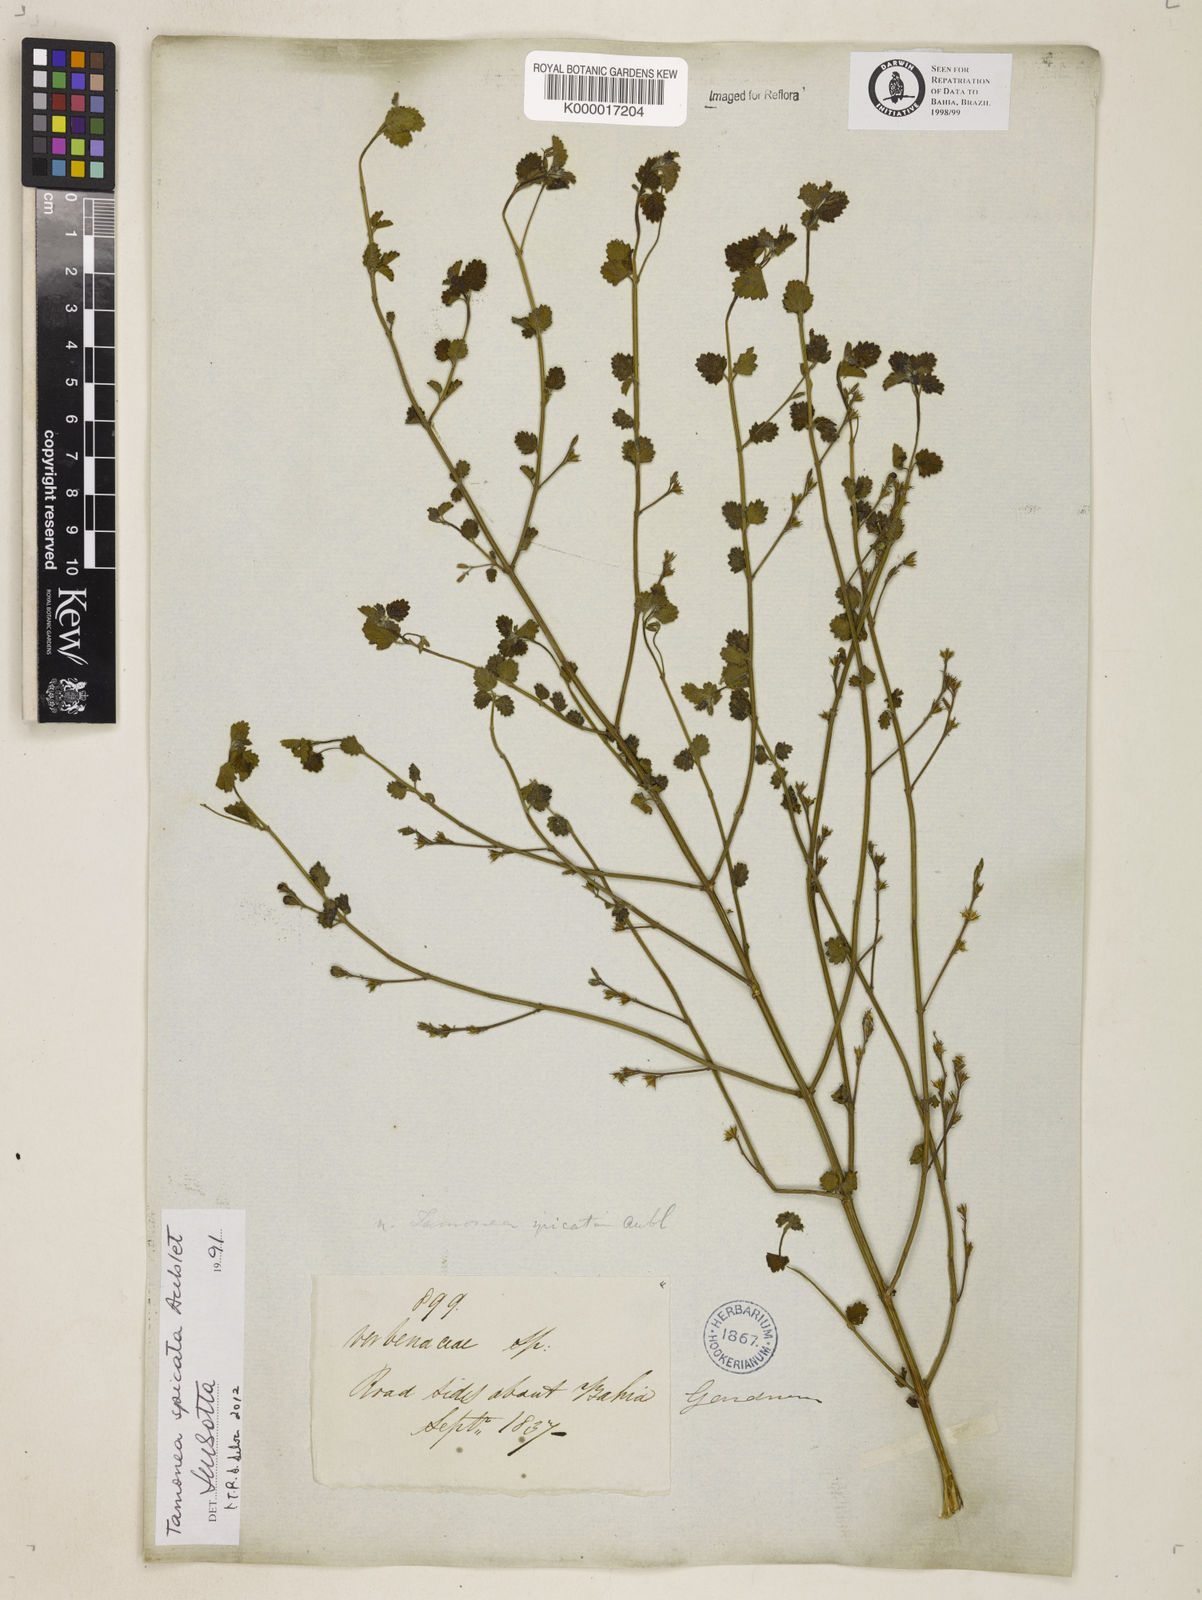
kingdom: Plantae
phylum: Tracheophyta
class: Magnoliopsida
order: Lamiales
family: Verbenaceae
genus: Tamonea
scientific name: Tamonea spicata
